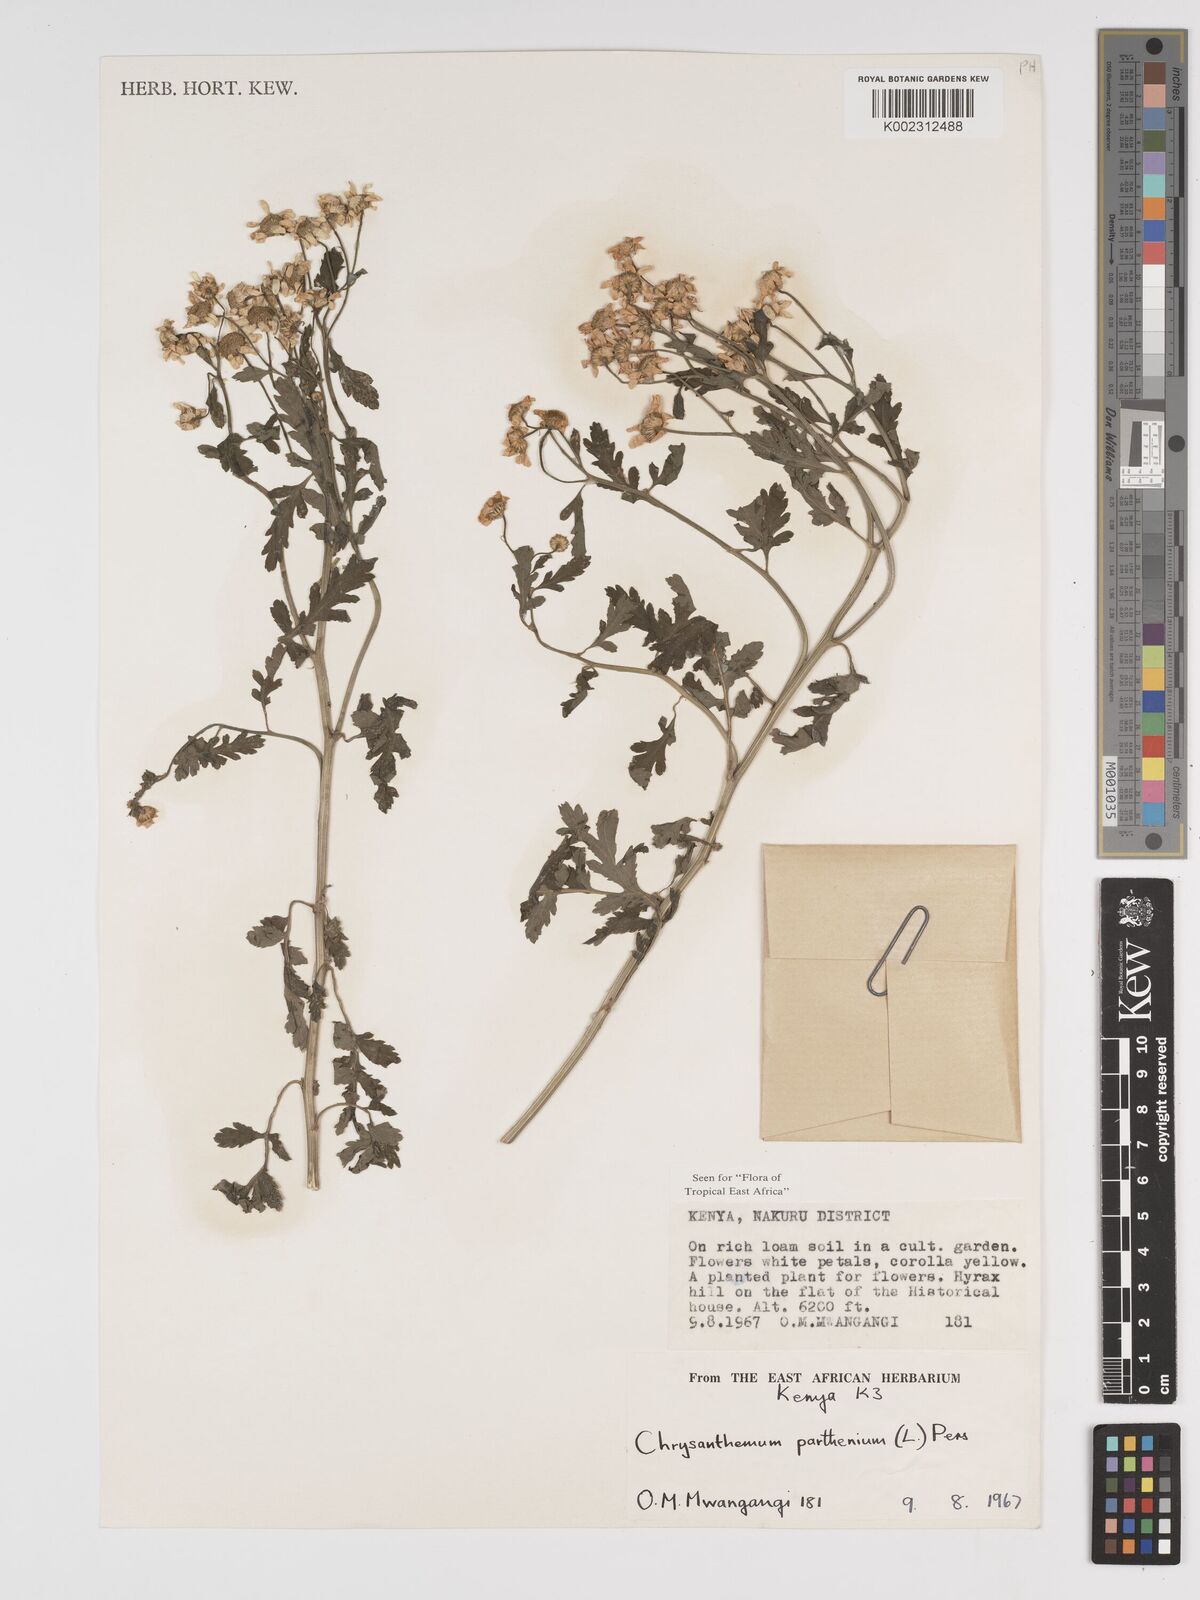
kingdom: Plantae
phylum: Tracheophyta
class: Magnoliopsida
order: Asterales
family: Asteraceae
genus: Tanacetum
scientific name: Tanacetum parthenium
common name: Feverfew
